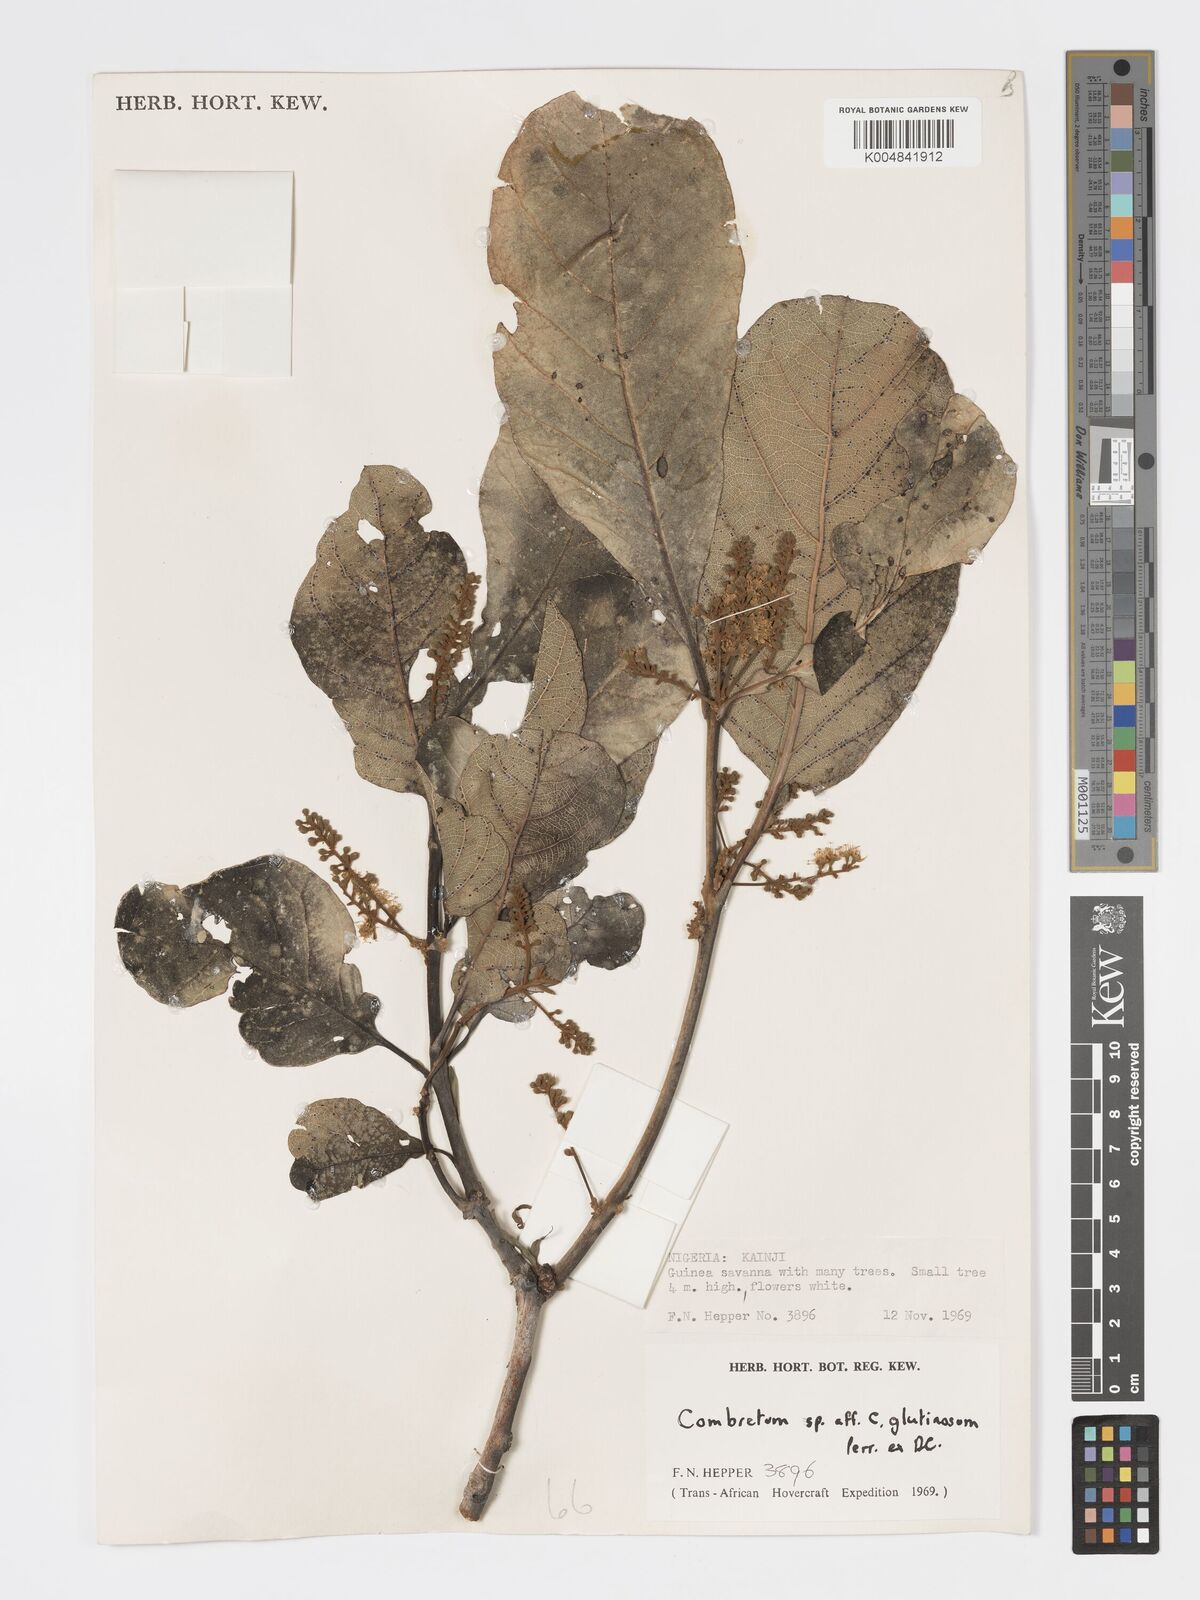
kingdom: Plantae
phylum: Tracheophyta
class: Magnoliopsida
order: Myrtales
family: Combretaceae
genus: Combretum
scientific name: Combretum
